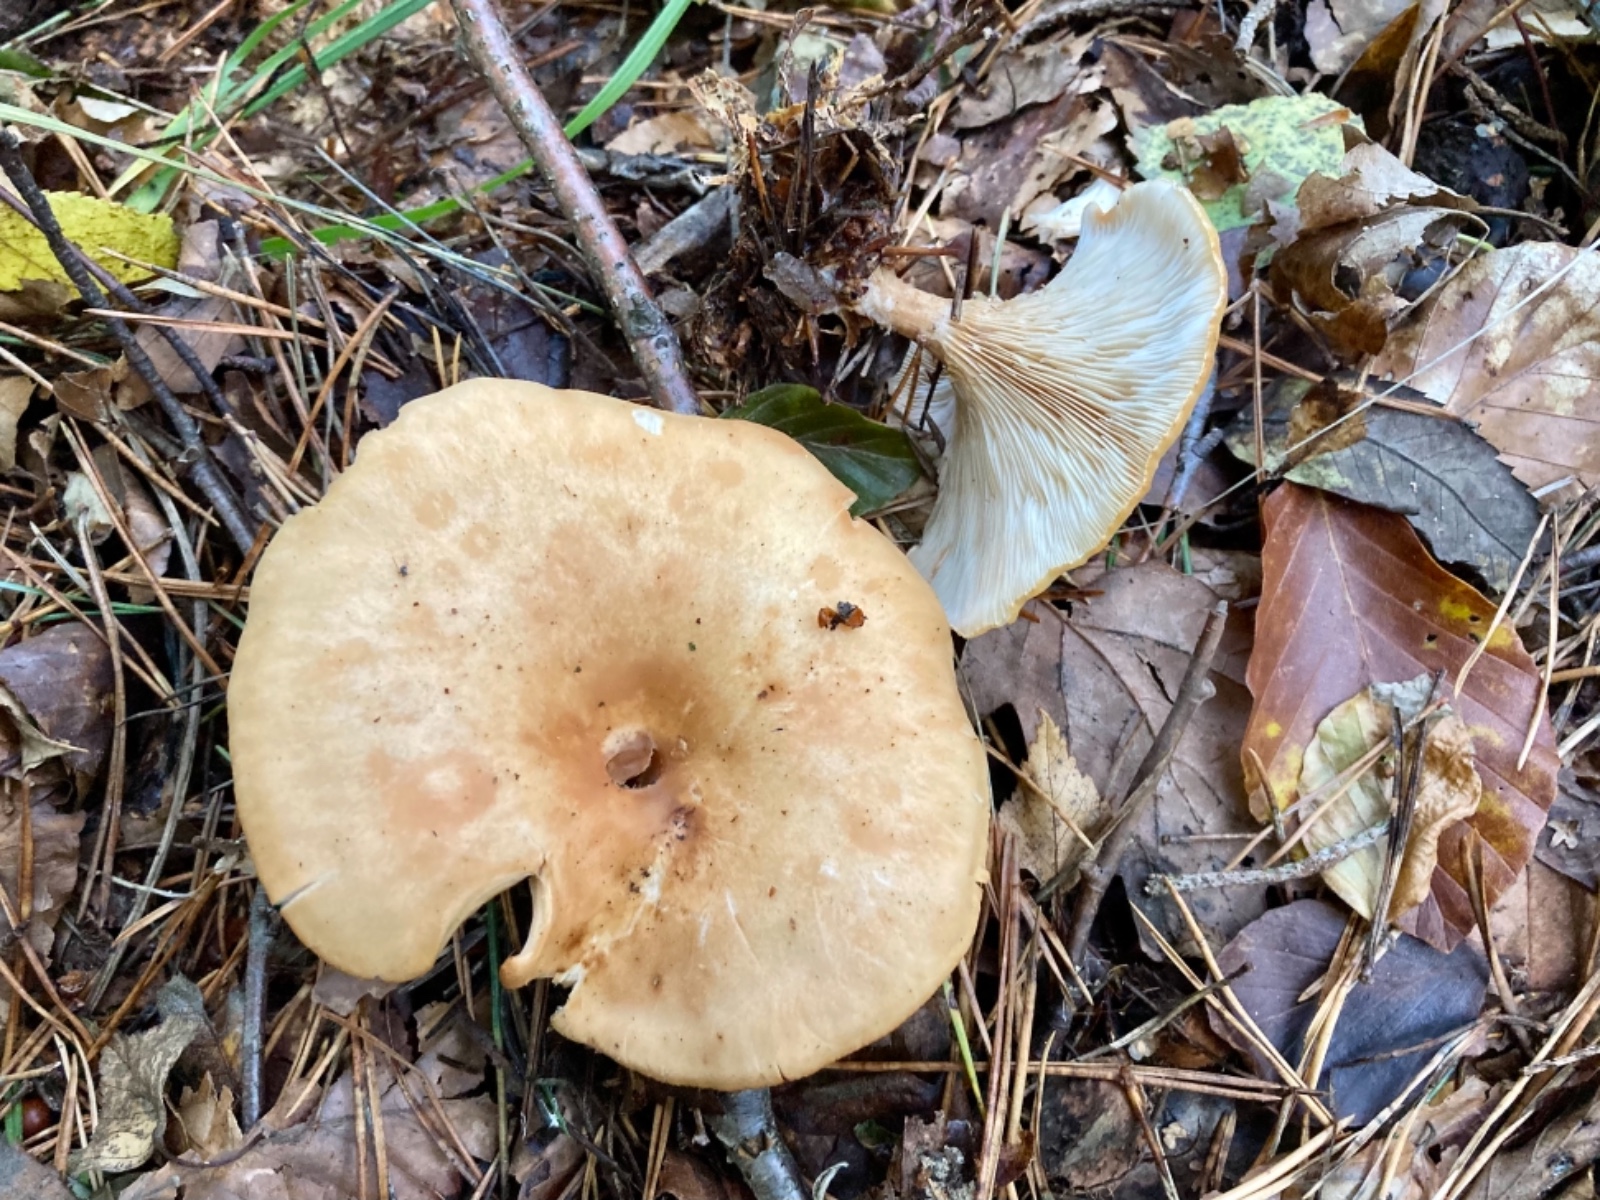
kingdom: Fungi
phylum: Basidiomycota
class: Agaricomycetes
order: Agaricales
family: Tricholomataceae
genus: Paralepista
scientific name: Paralepista gilva
